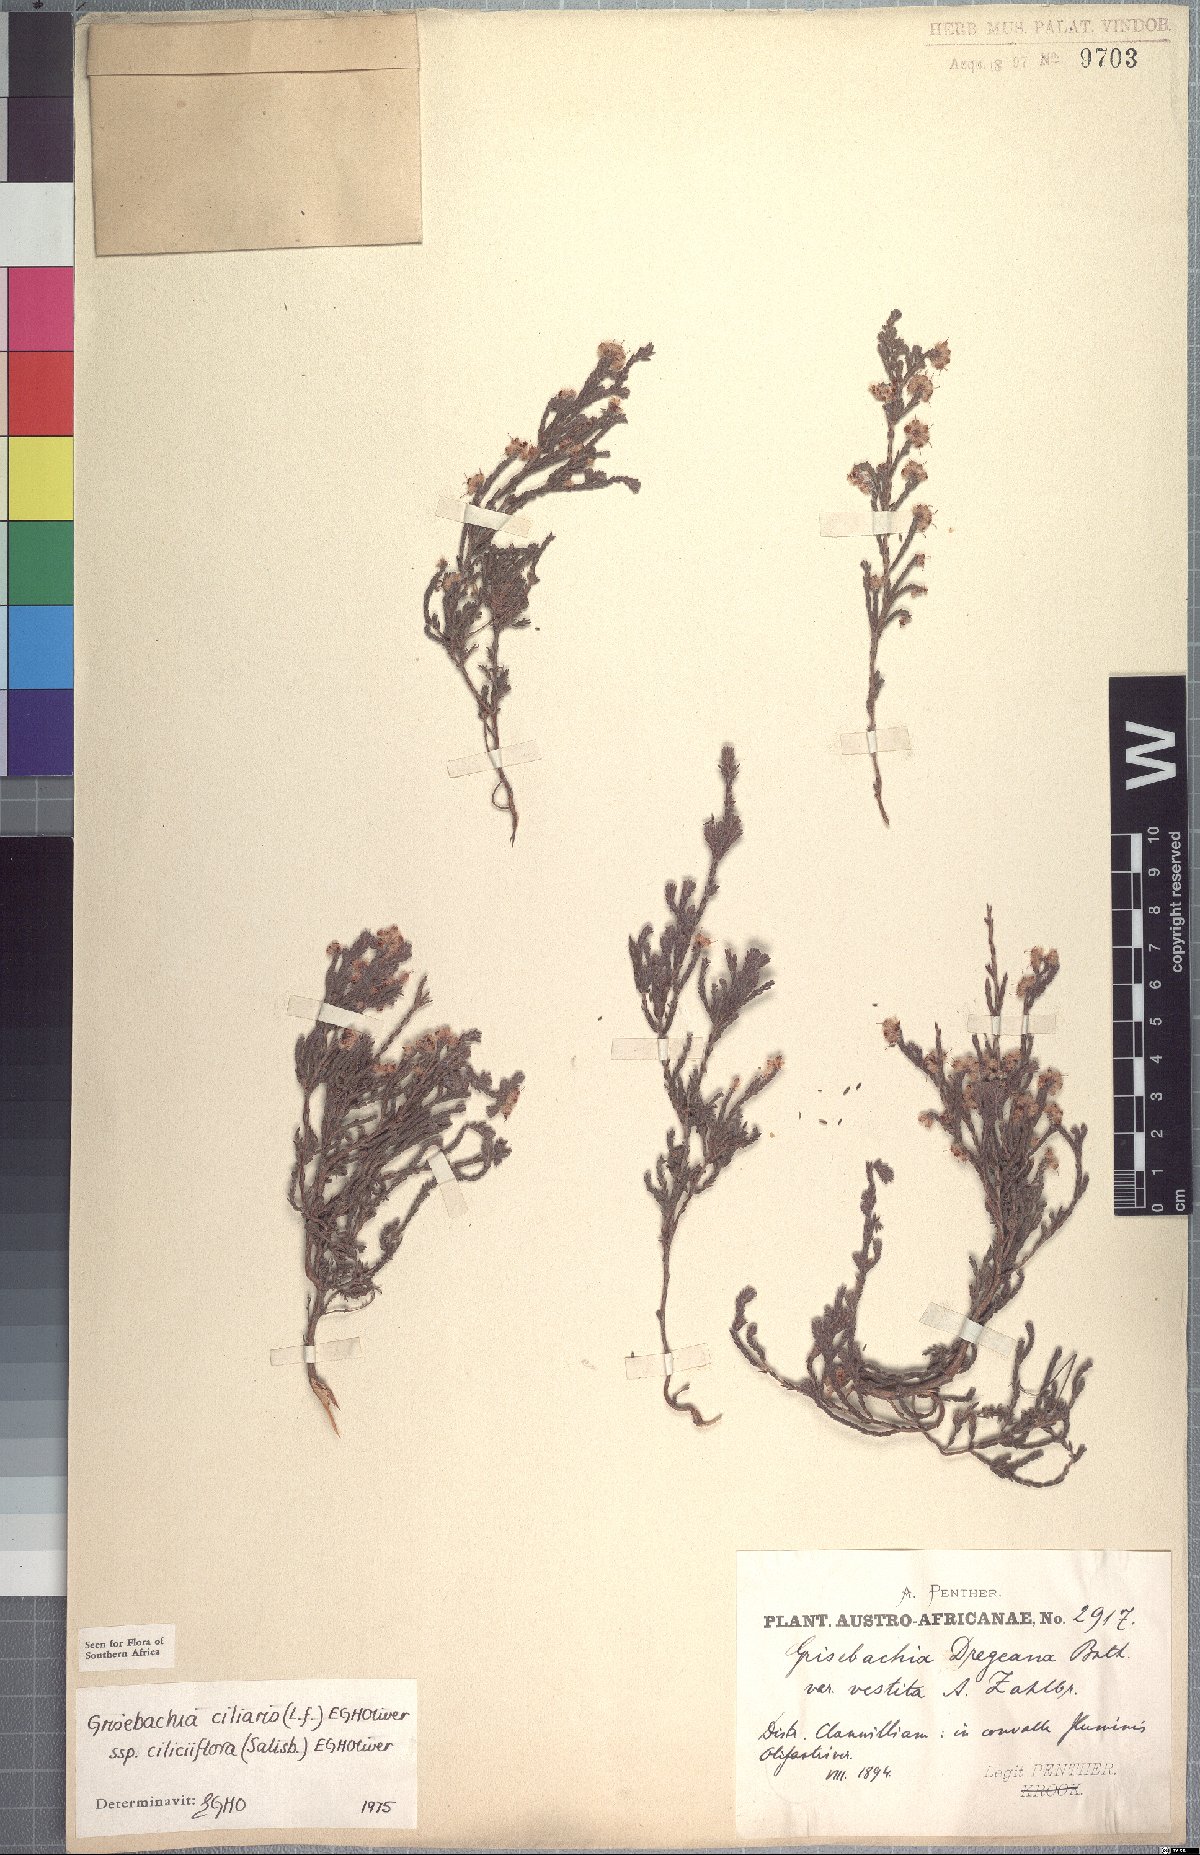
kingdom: Plantae
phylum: Tracheophyta
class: Magnoliopsida
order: Ericales
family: Ericaceae
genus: Erica
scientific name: Erica plumosa
